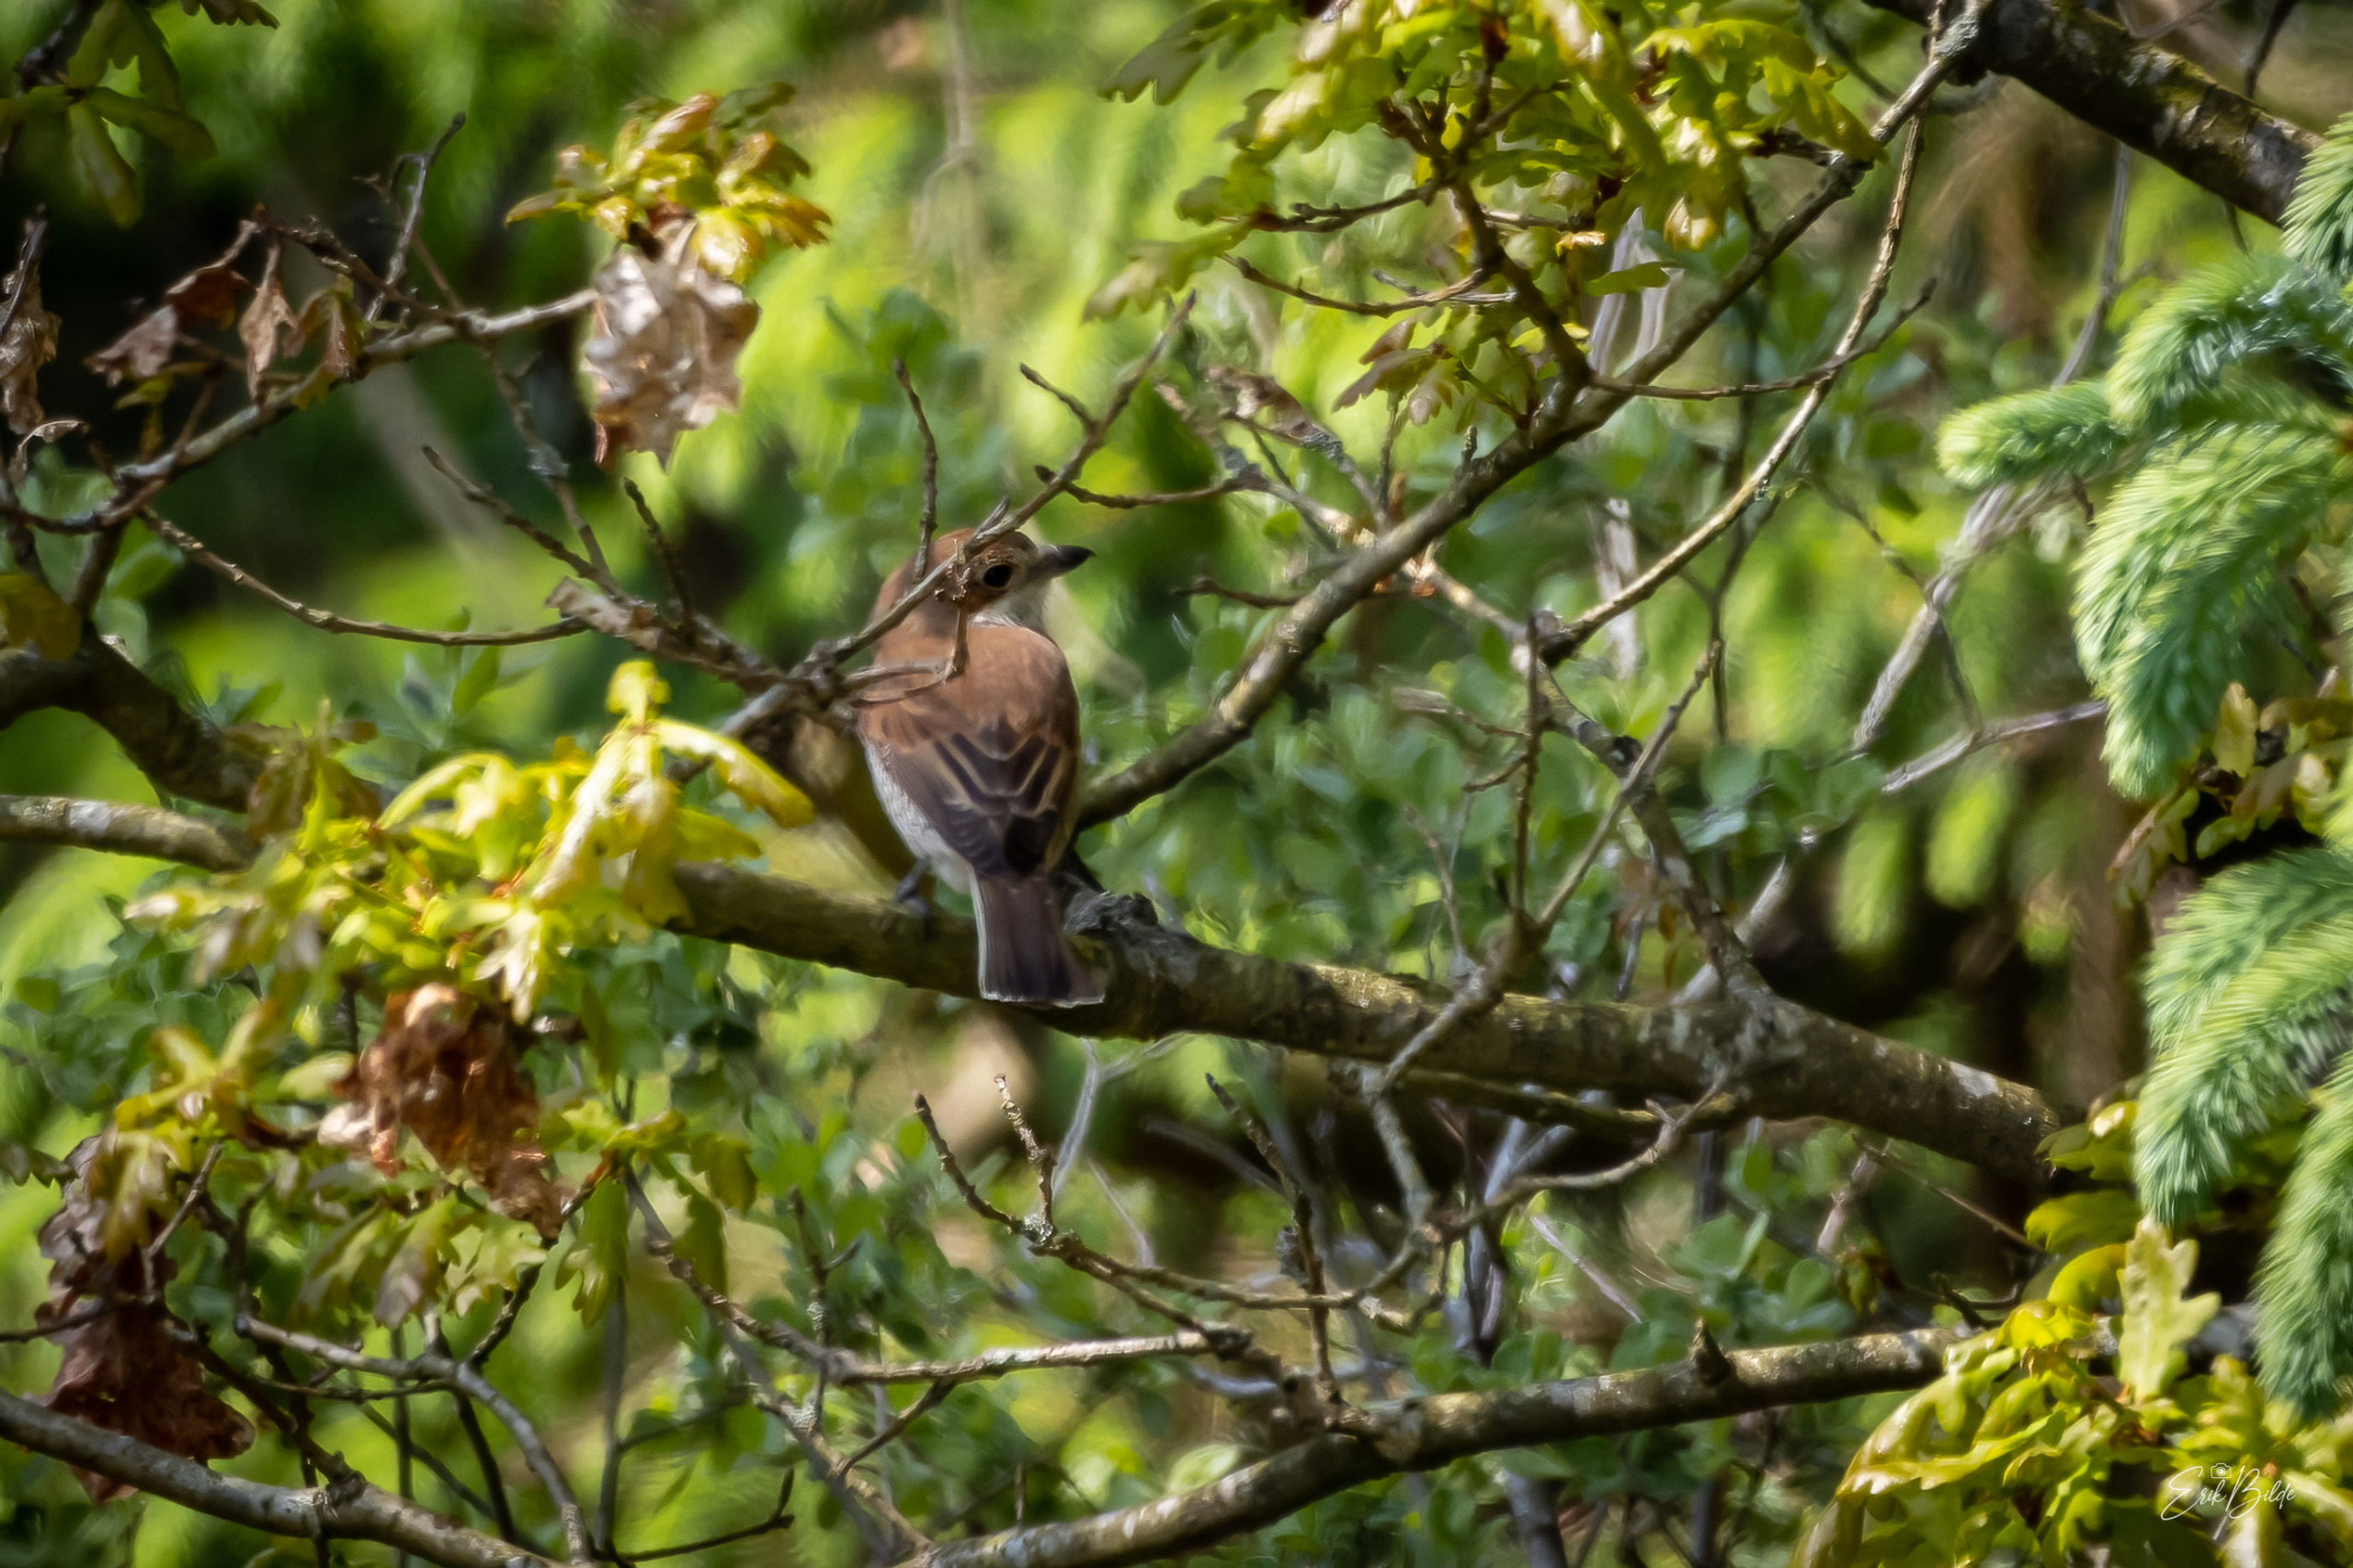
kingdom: Animalia
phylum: Chordata
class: Aves
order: Passeriformes
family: Laniidae
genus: Lanius
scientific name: Lanius collurio
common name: Rødrygget tornskade
